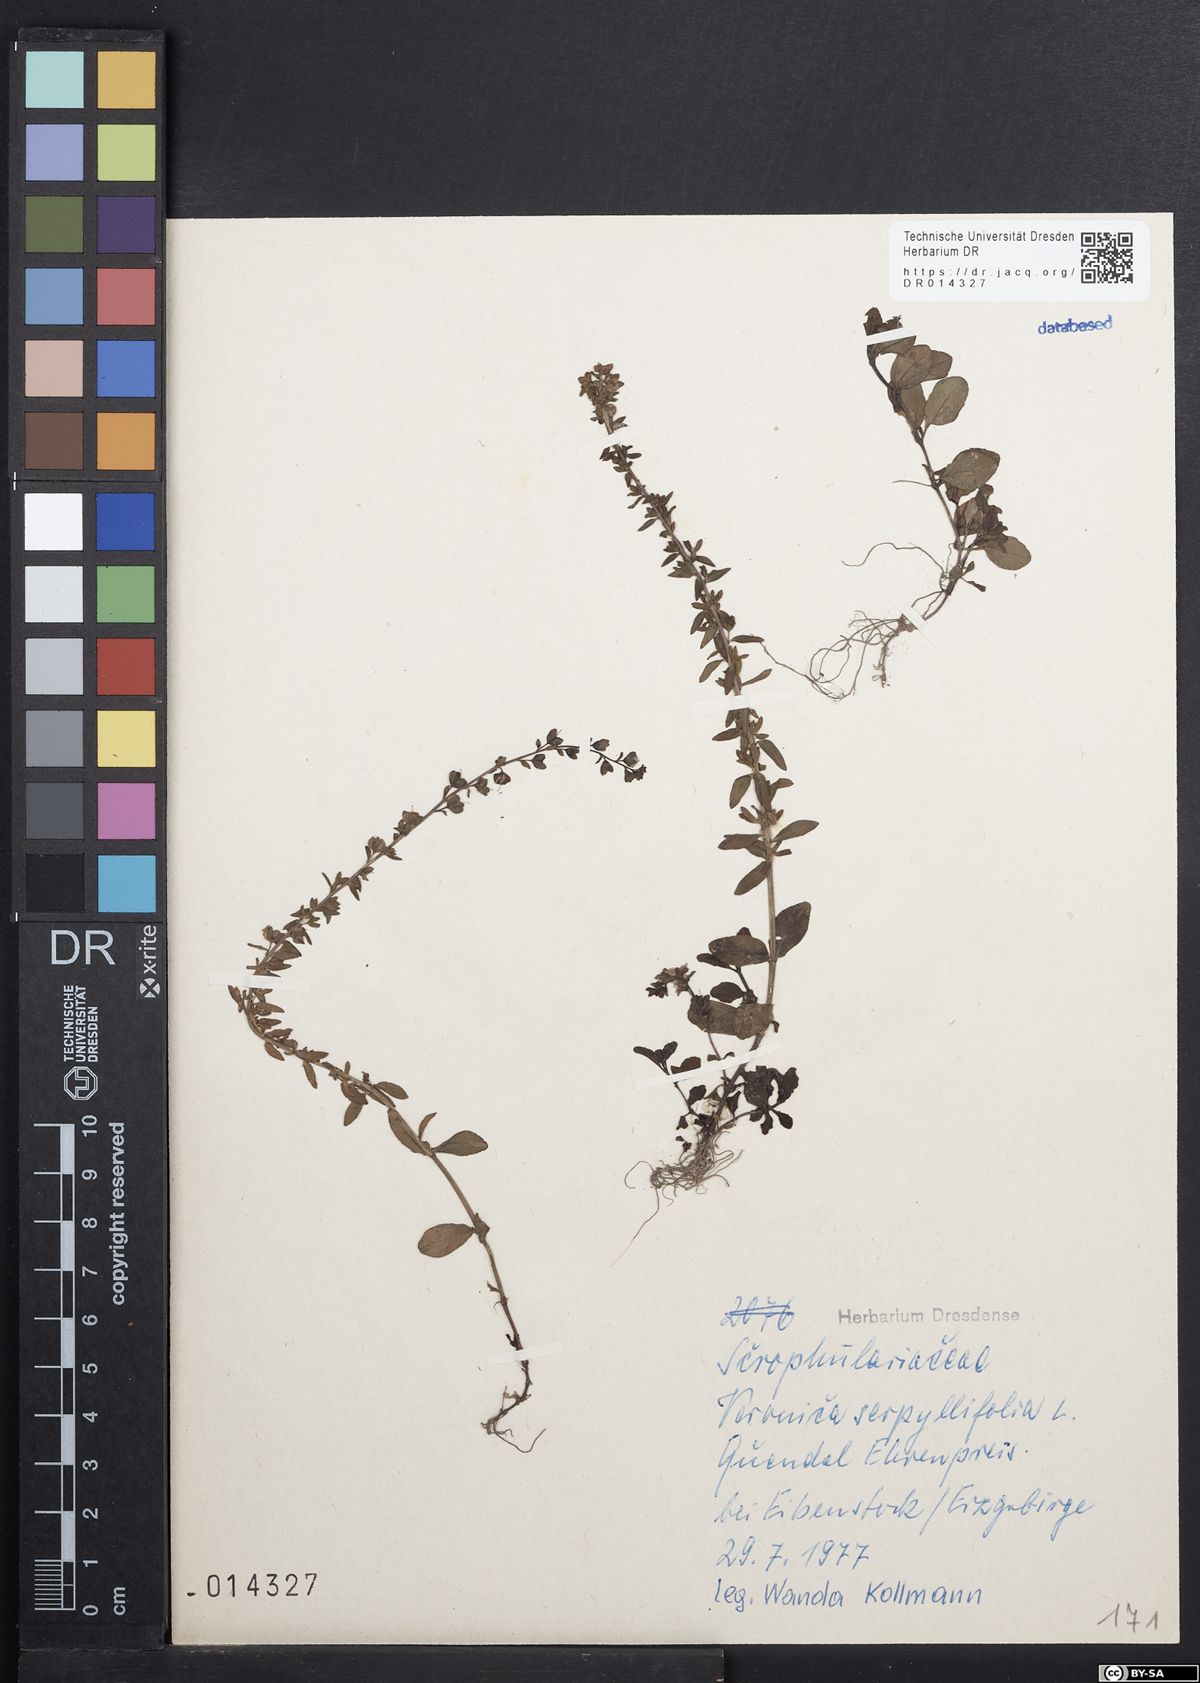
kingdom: Plantae
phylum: Tracheophyta
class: Magnoliopsida
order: Lamiales
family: Plantaginaceae
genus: Veronica
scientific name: Veronica serpyllifolia
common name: Thyme-leaved speedwell
